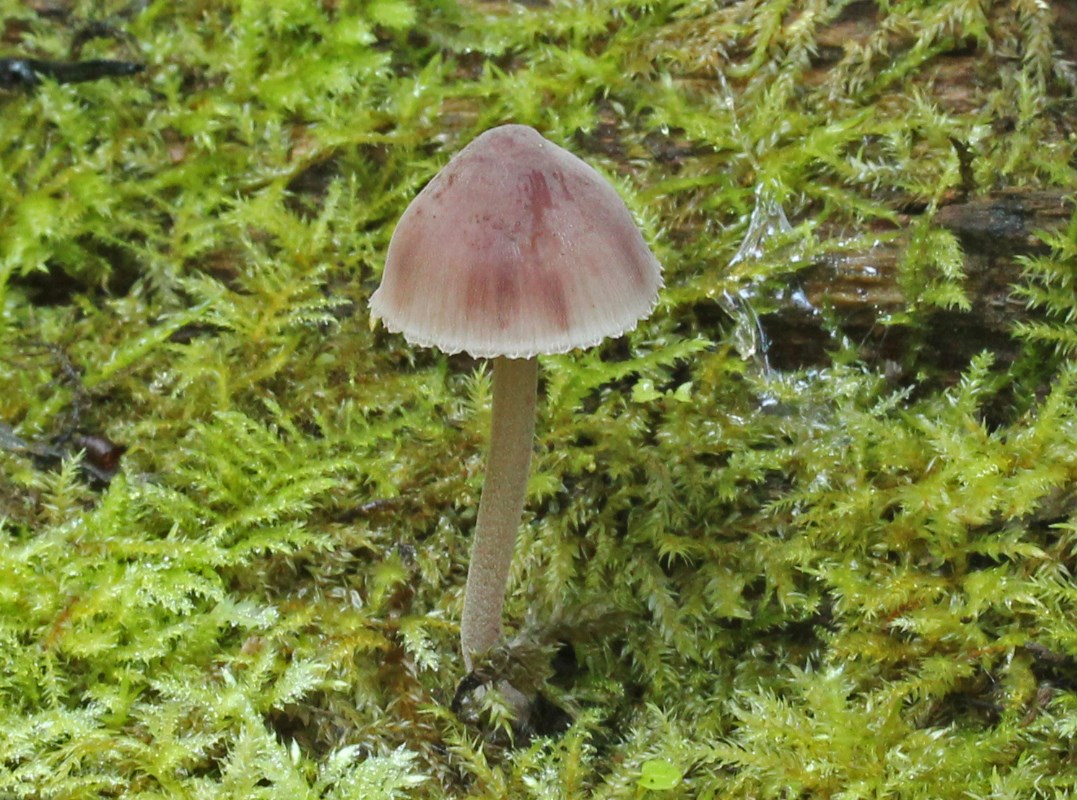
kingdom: Fungi
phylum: Basidiomycota
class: Agaricomycetes
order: Agaricales
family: Mycenaceae
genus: Mycena
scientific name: Mycena haematopus
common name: blødende huesvamp
